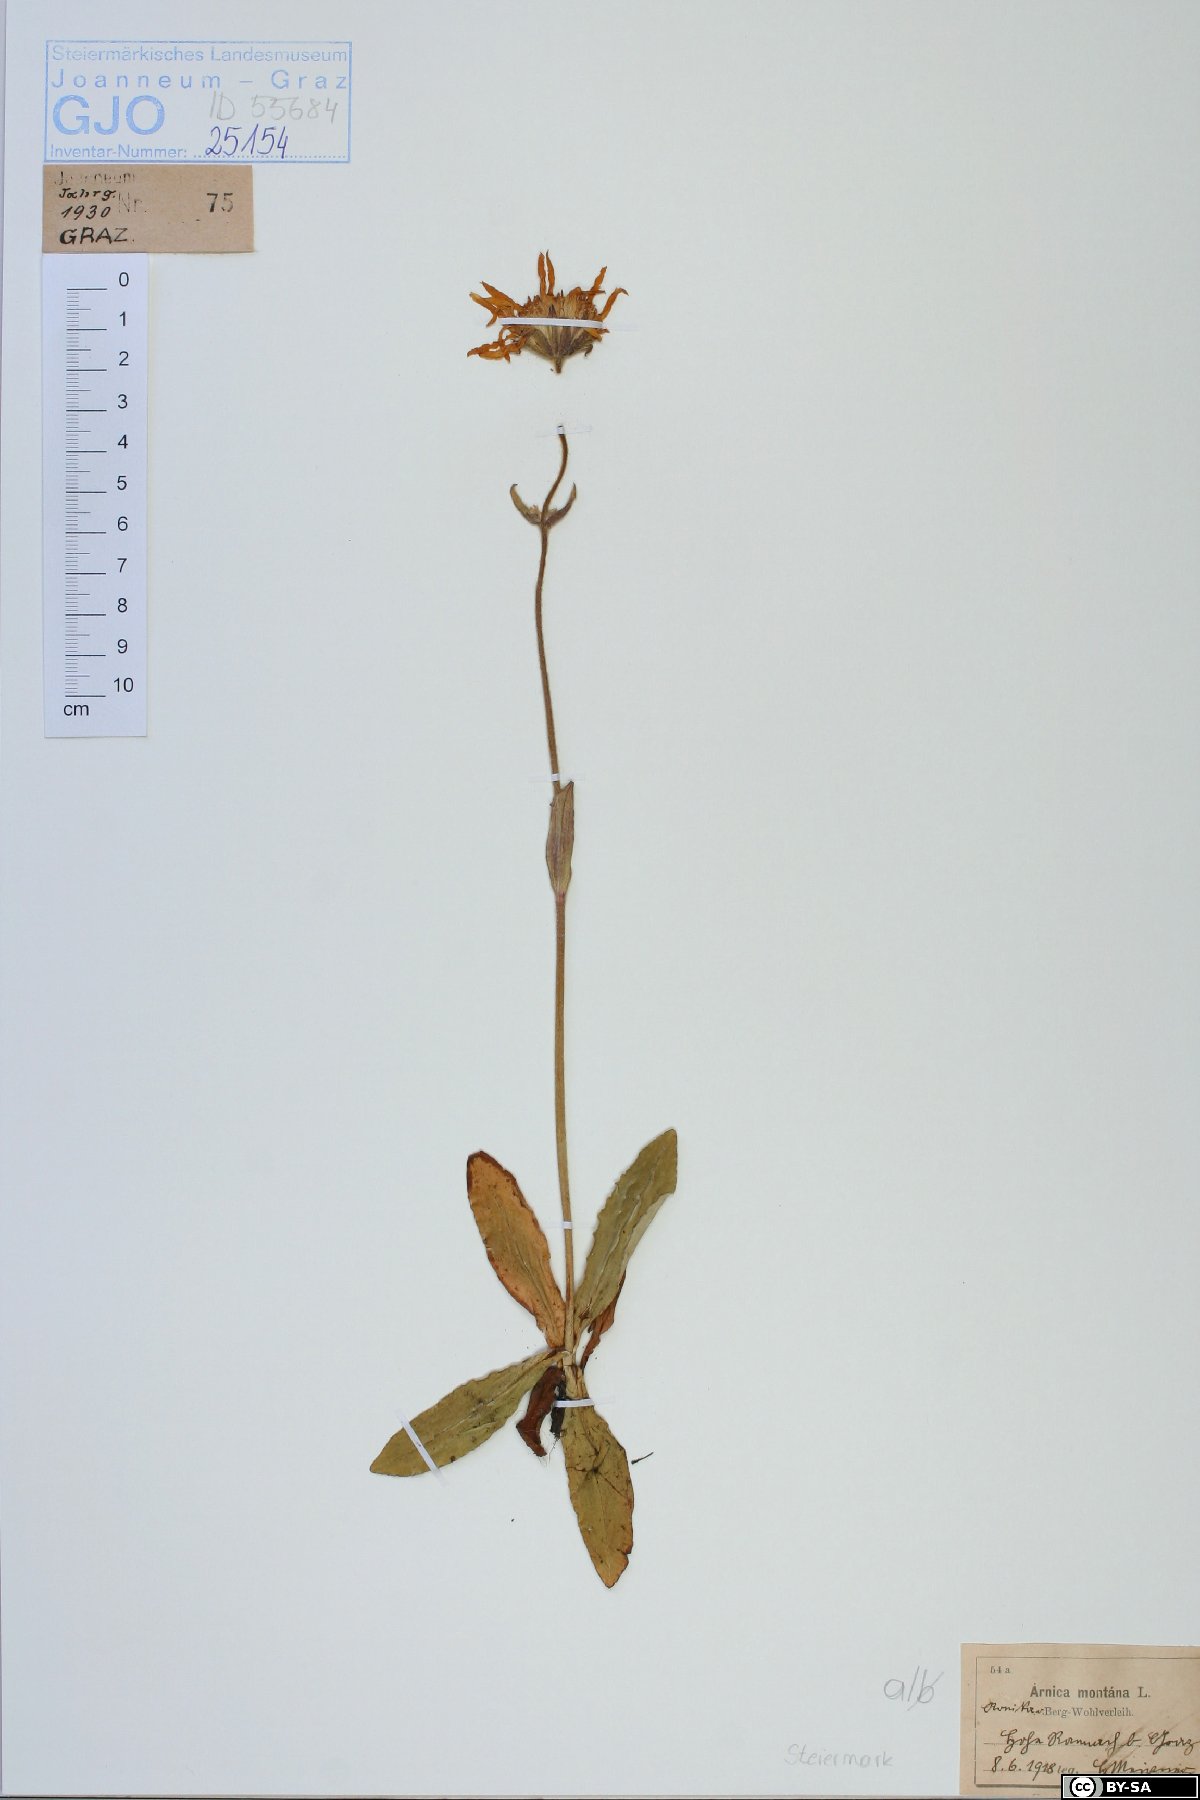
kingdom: Plantae
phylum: Tracheophyta
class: Magnoliopsida
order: Asterales
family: Asteraceae
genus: Arnica
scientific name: Arnica montana
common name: Leopard's bane
